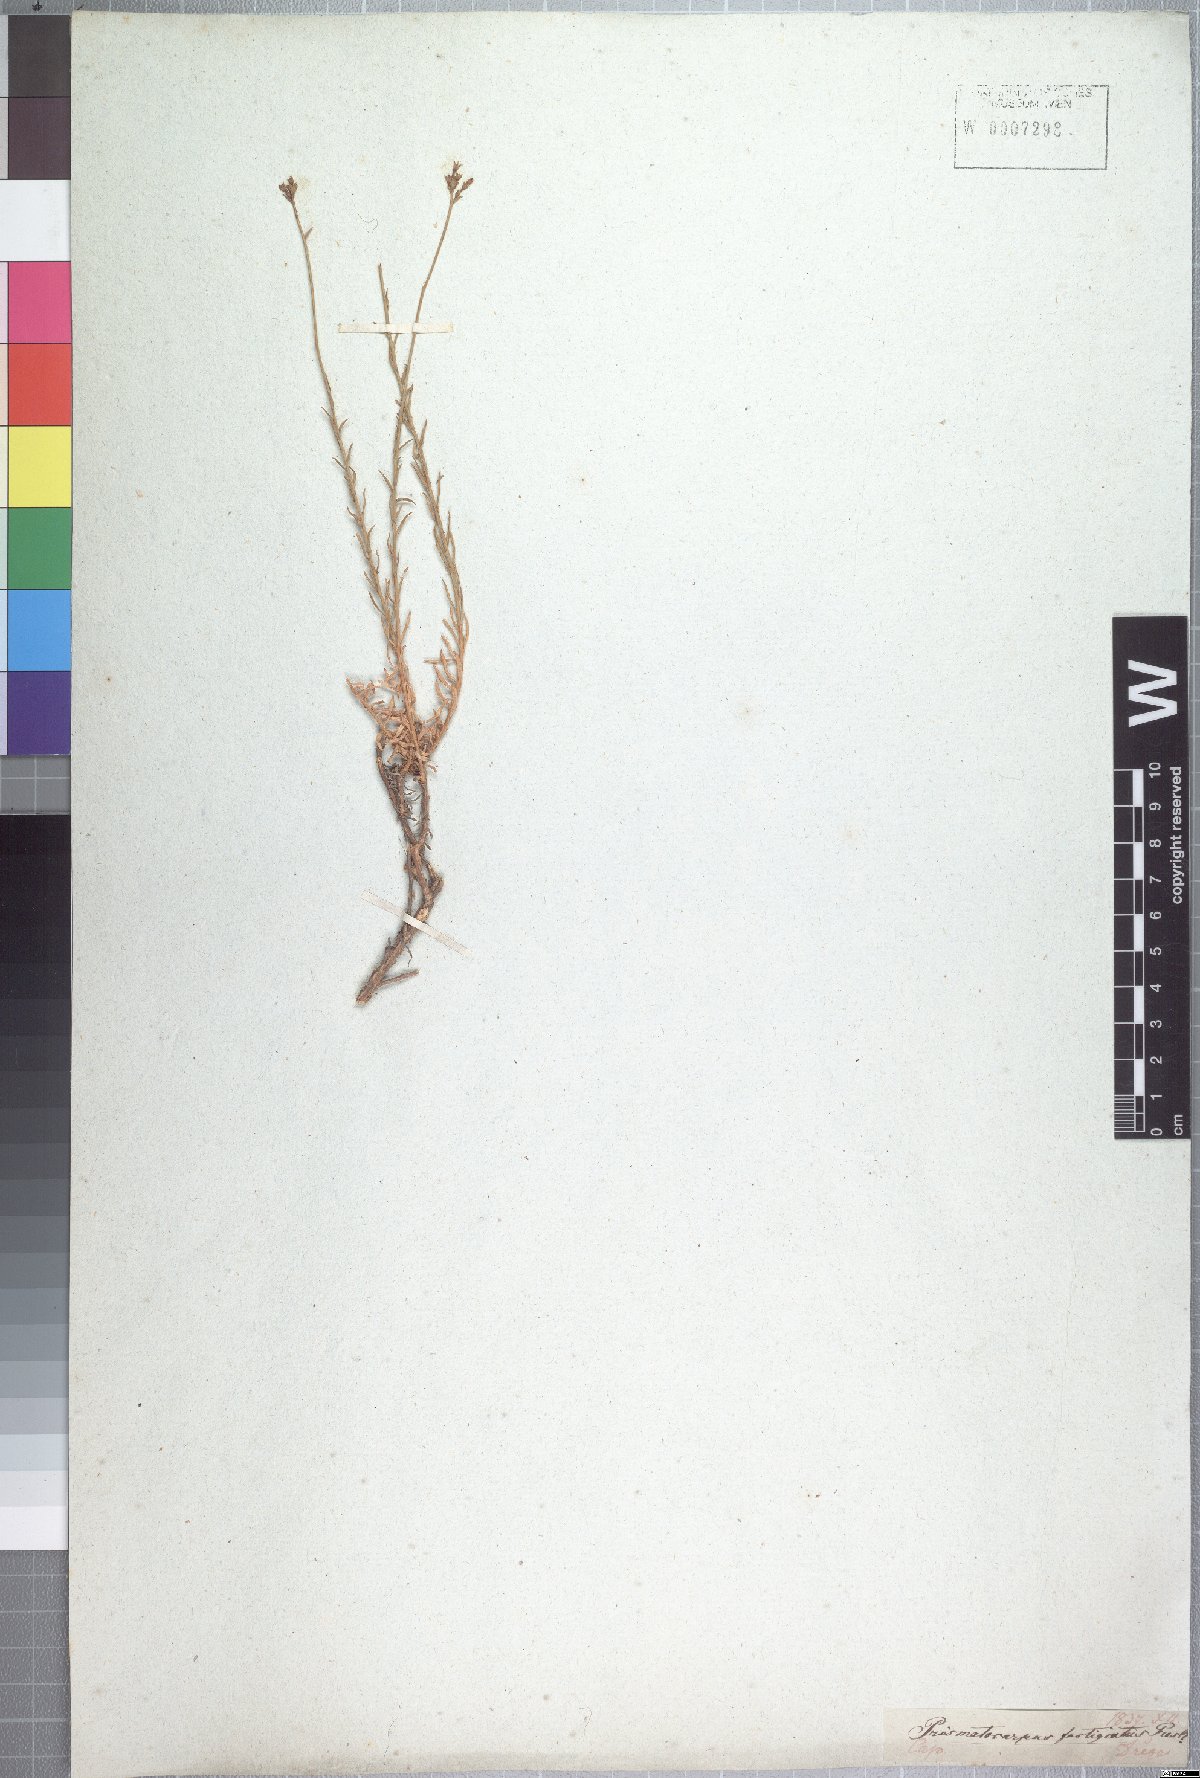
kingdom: Plantae
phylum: Tracheophyta
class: Magnoliopsida
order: Asterales
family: Campanulaceae
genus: Prismatocarpus
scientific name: Prismatocarpus fastigiatus
